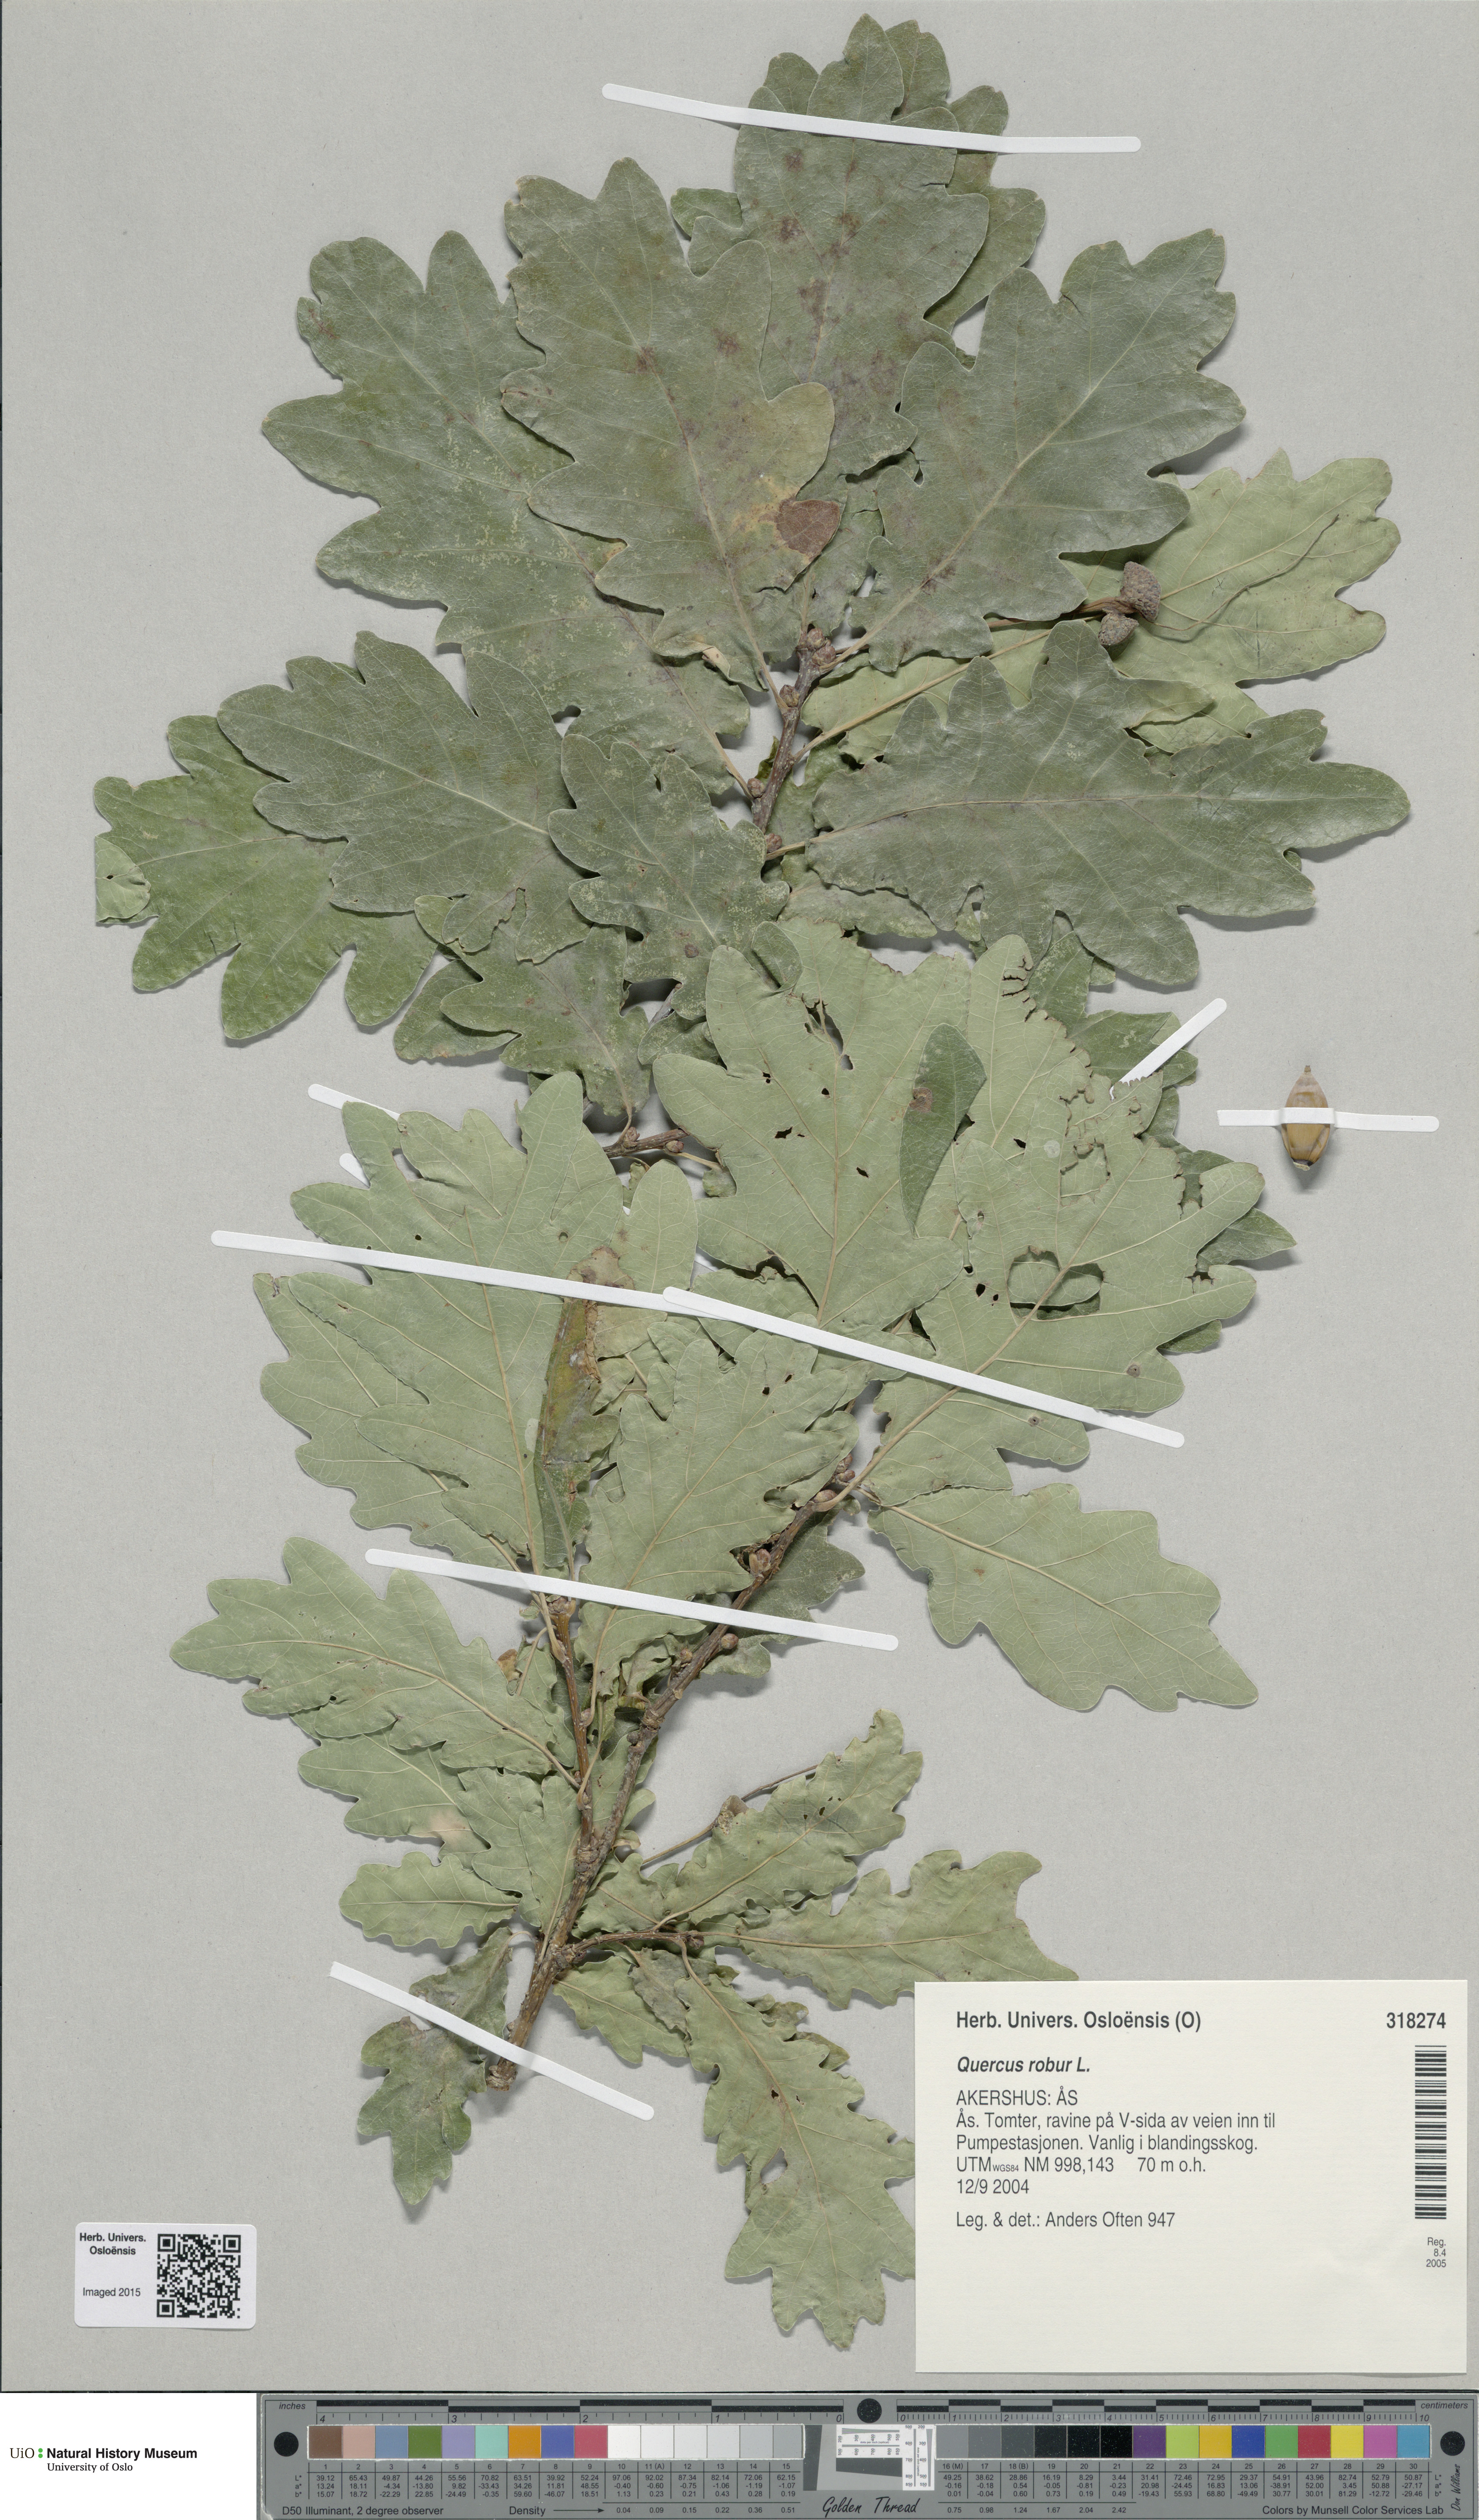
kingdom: Plantae
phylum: Tracheophyta
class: Magnoliopsida
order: Fagales
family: Fagaceae
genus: Quercus
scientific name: Quercus robur
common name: Pedunculate oak
